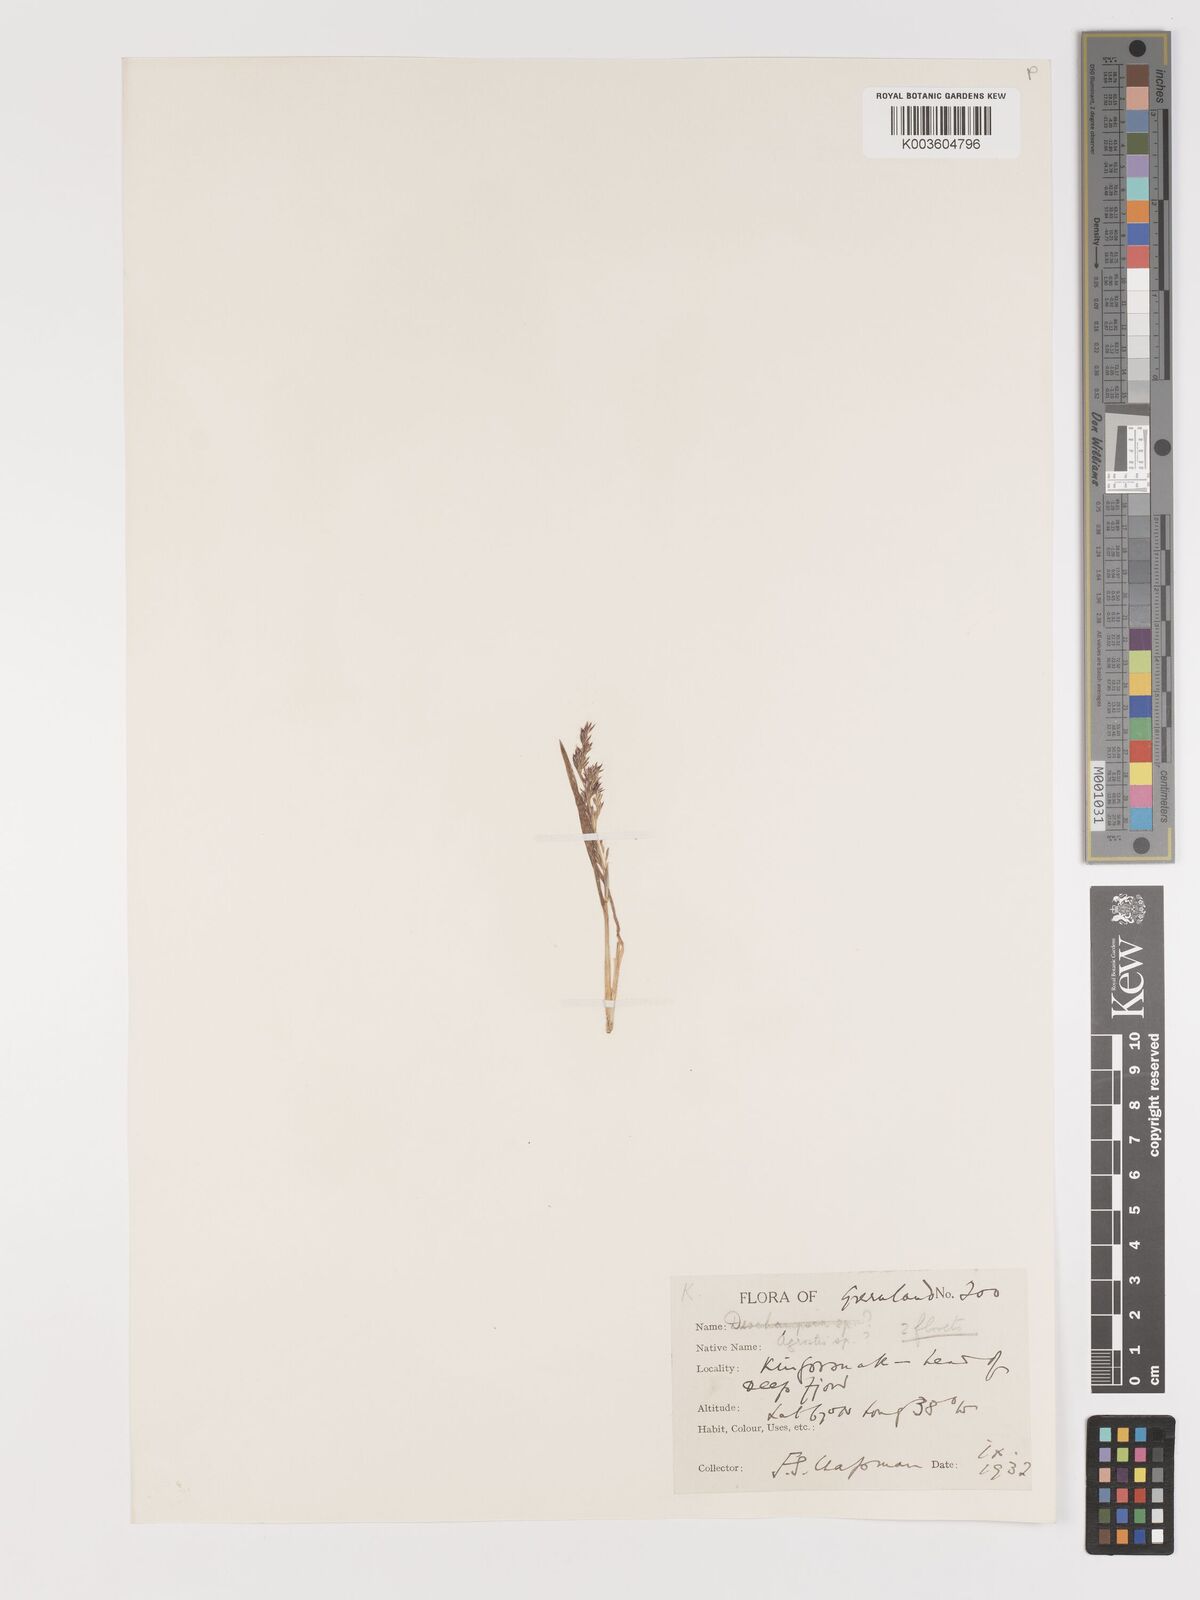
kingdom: Plantae
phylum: Tracheophyta
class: Liliopsida
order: Poales
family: Poaceae
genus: Agrostis
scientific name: Agrostis
